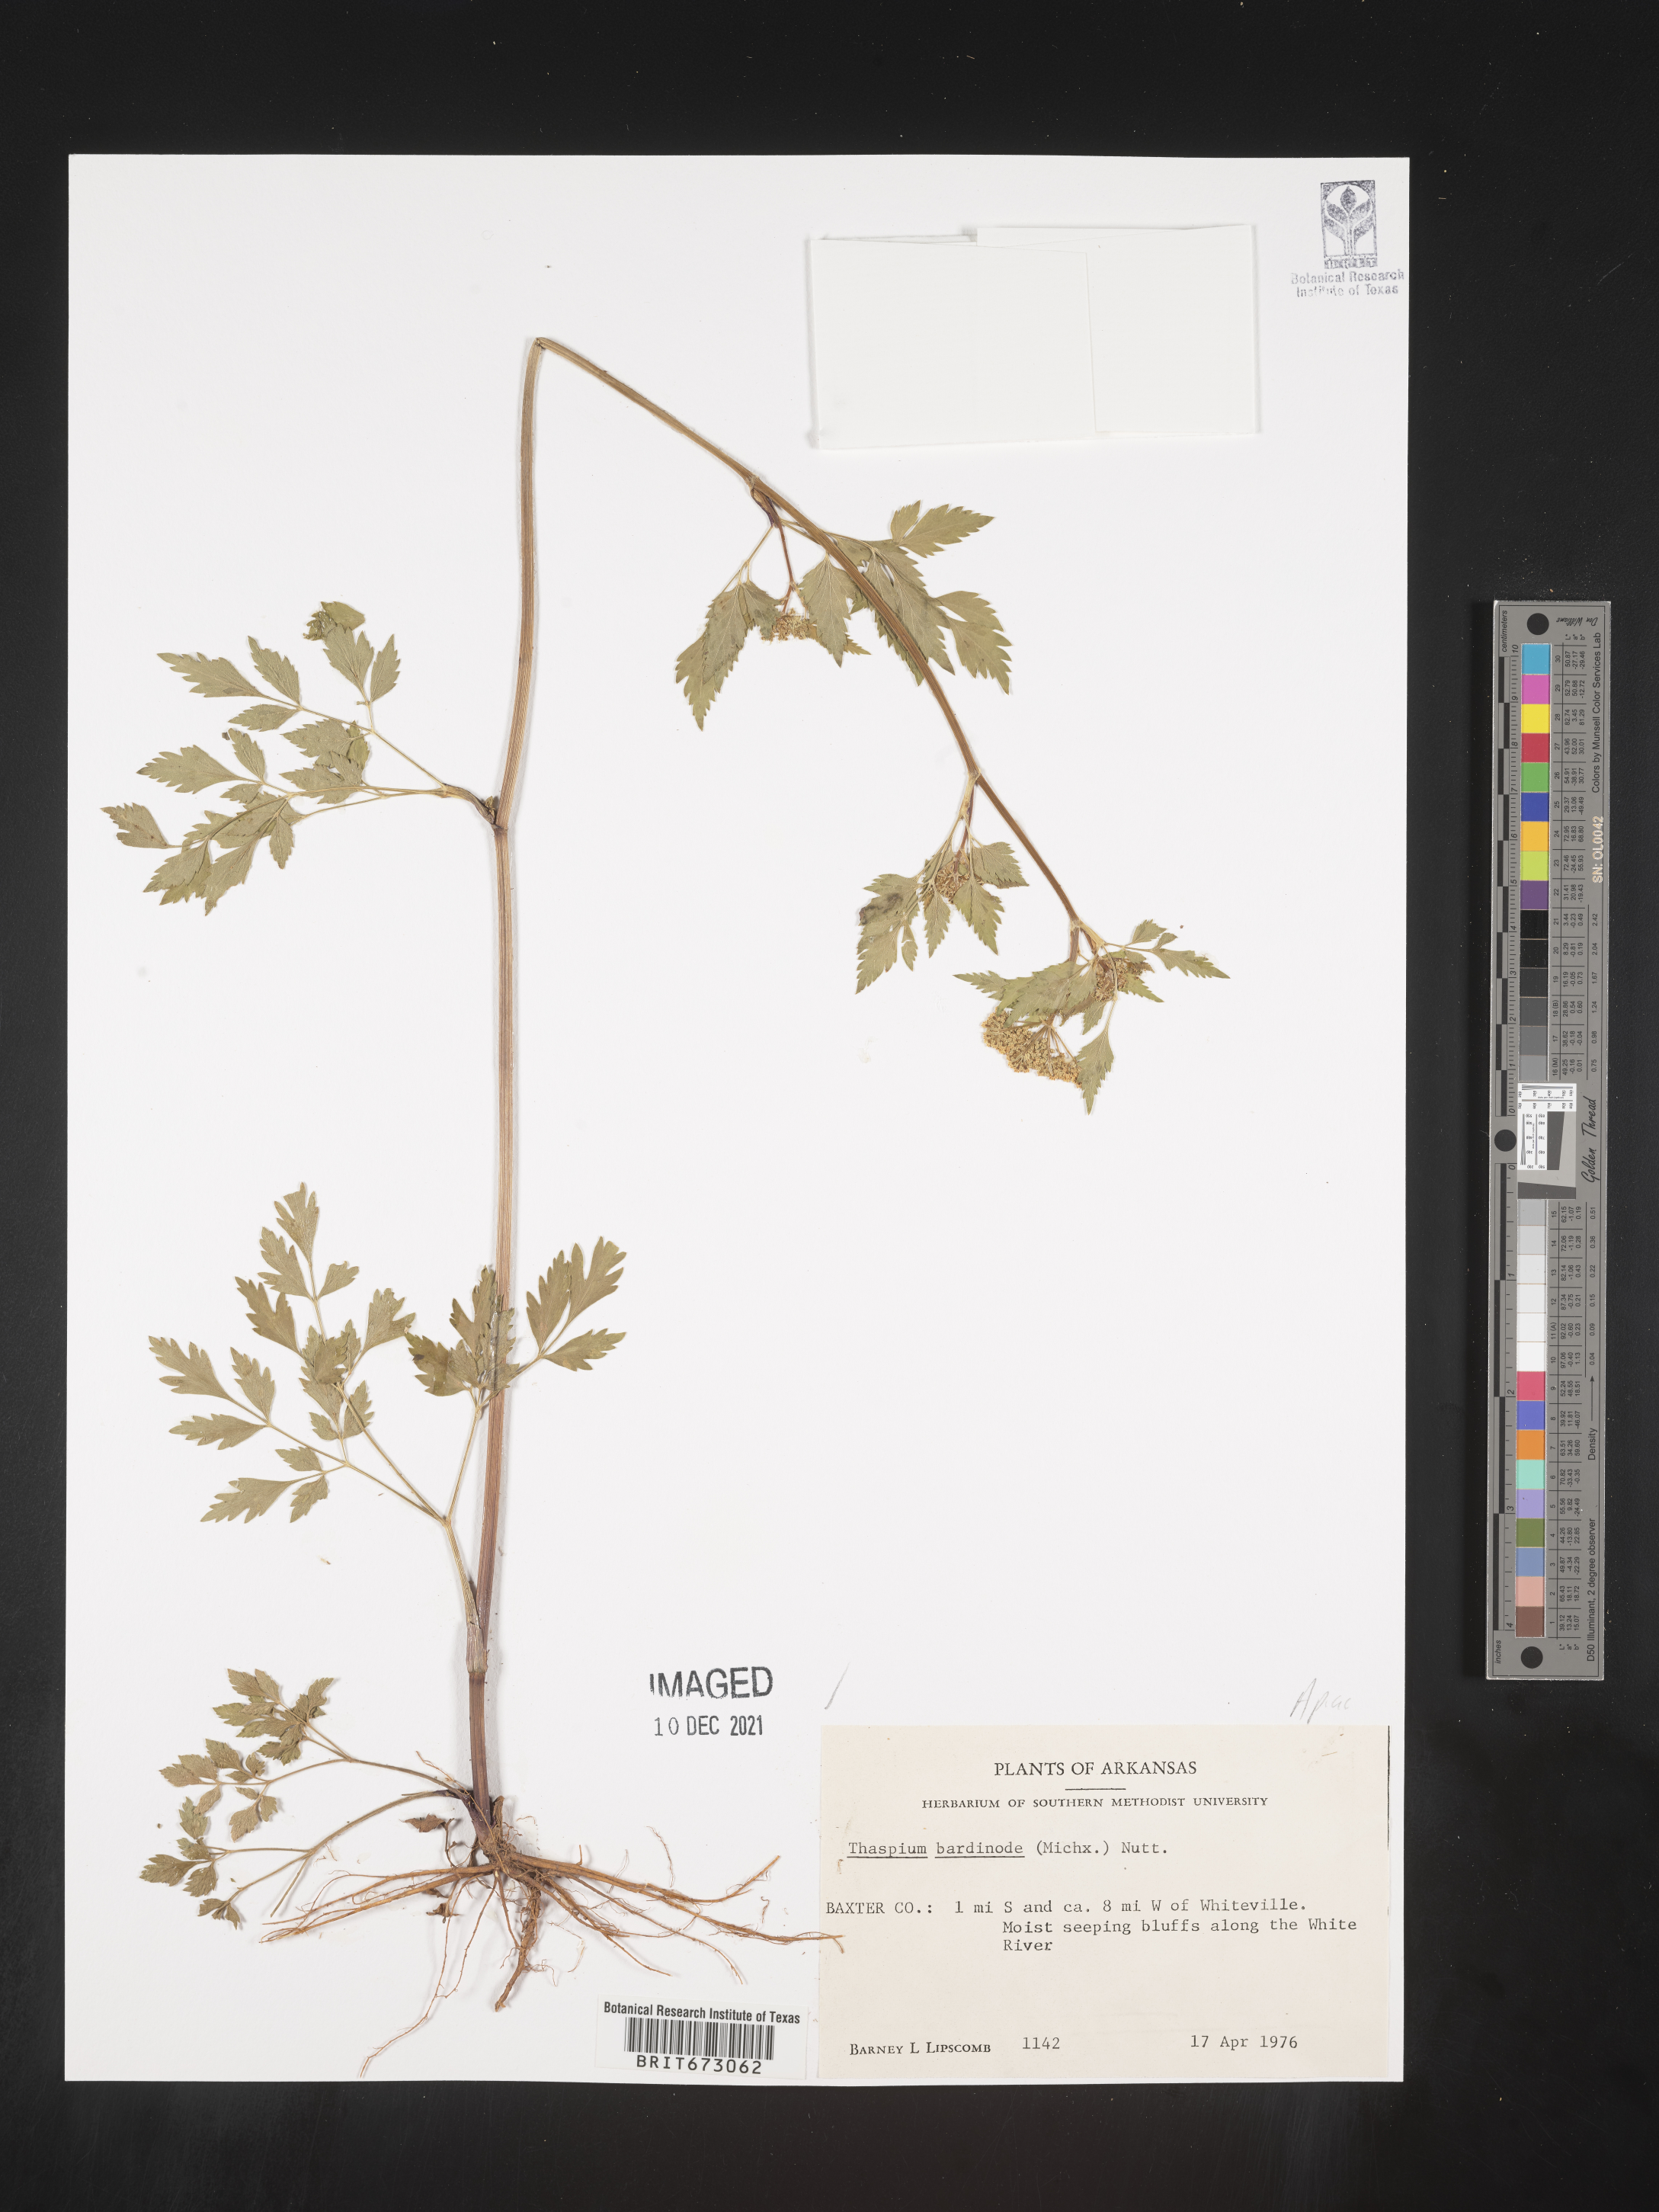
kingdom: Plantae
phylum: Tracheophyta
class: Magnoliopsida
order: Apiales
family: Apiaceae
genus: Thaspium
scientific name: Thaspium barbinode
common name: Bearded meadow-parsnip
